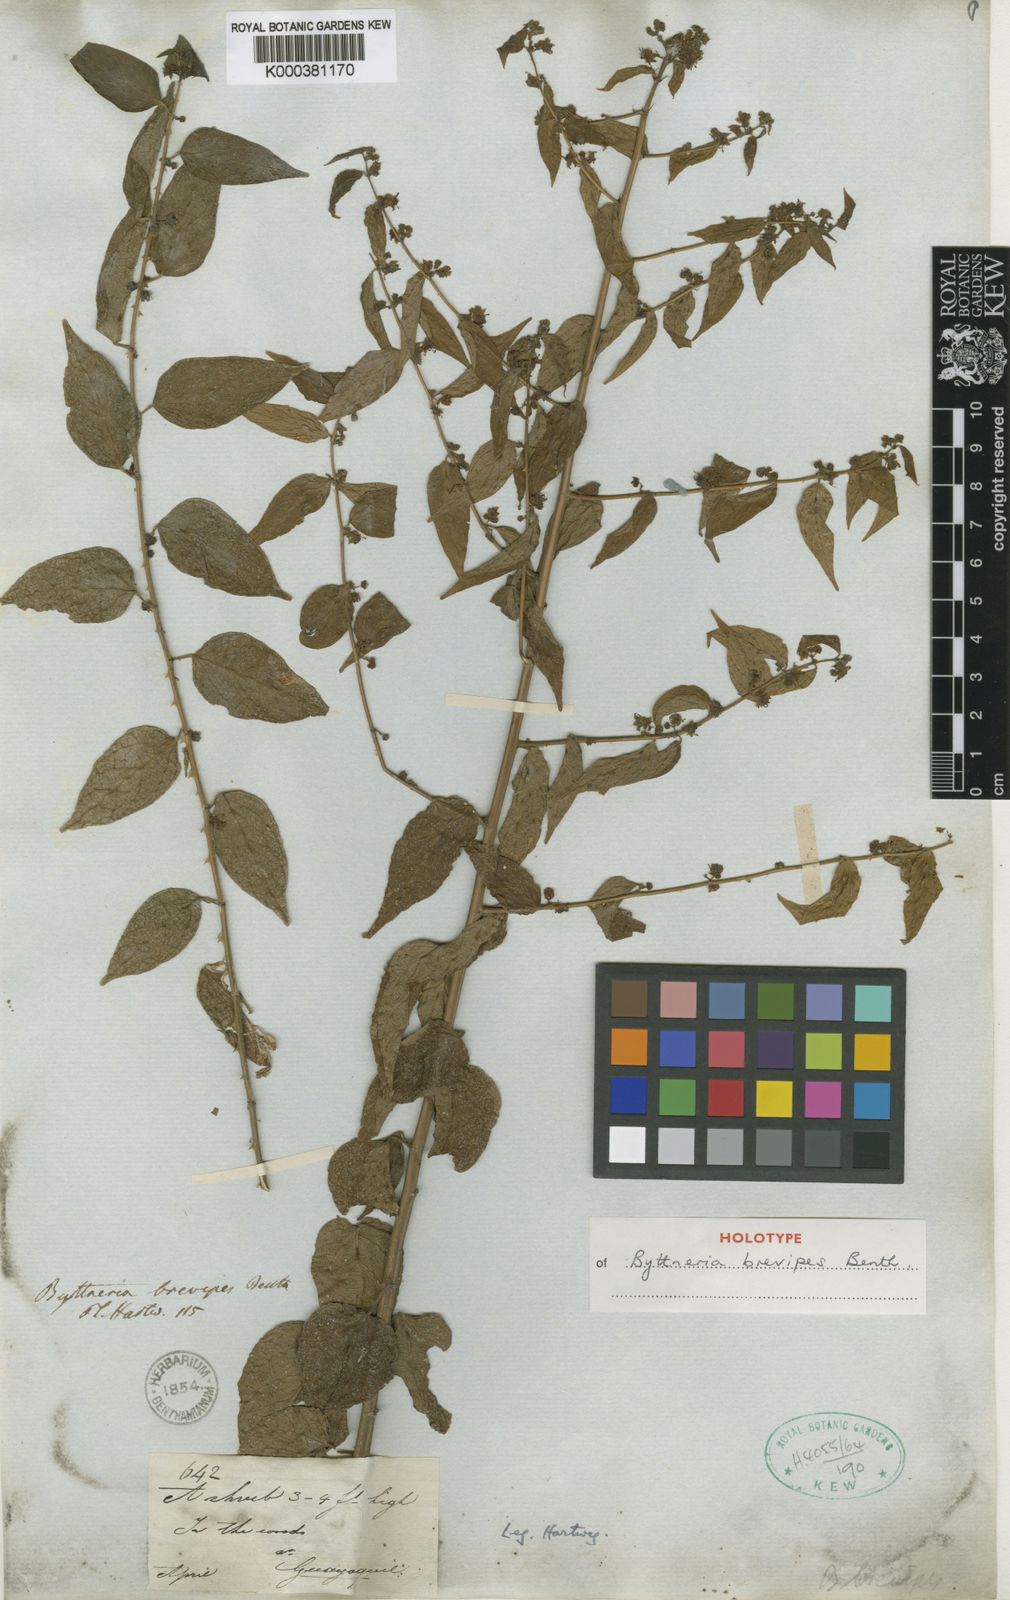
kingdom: Plantae
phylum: Tracheophyta
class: Magnoliopsida
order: Malvales
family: Malvaceae
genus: Byttneria
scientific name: Byttneria aculeata
